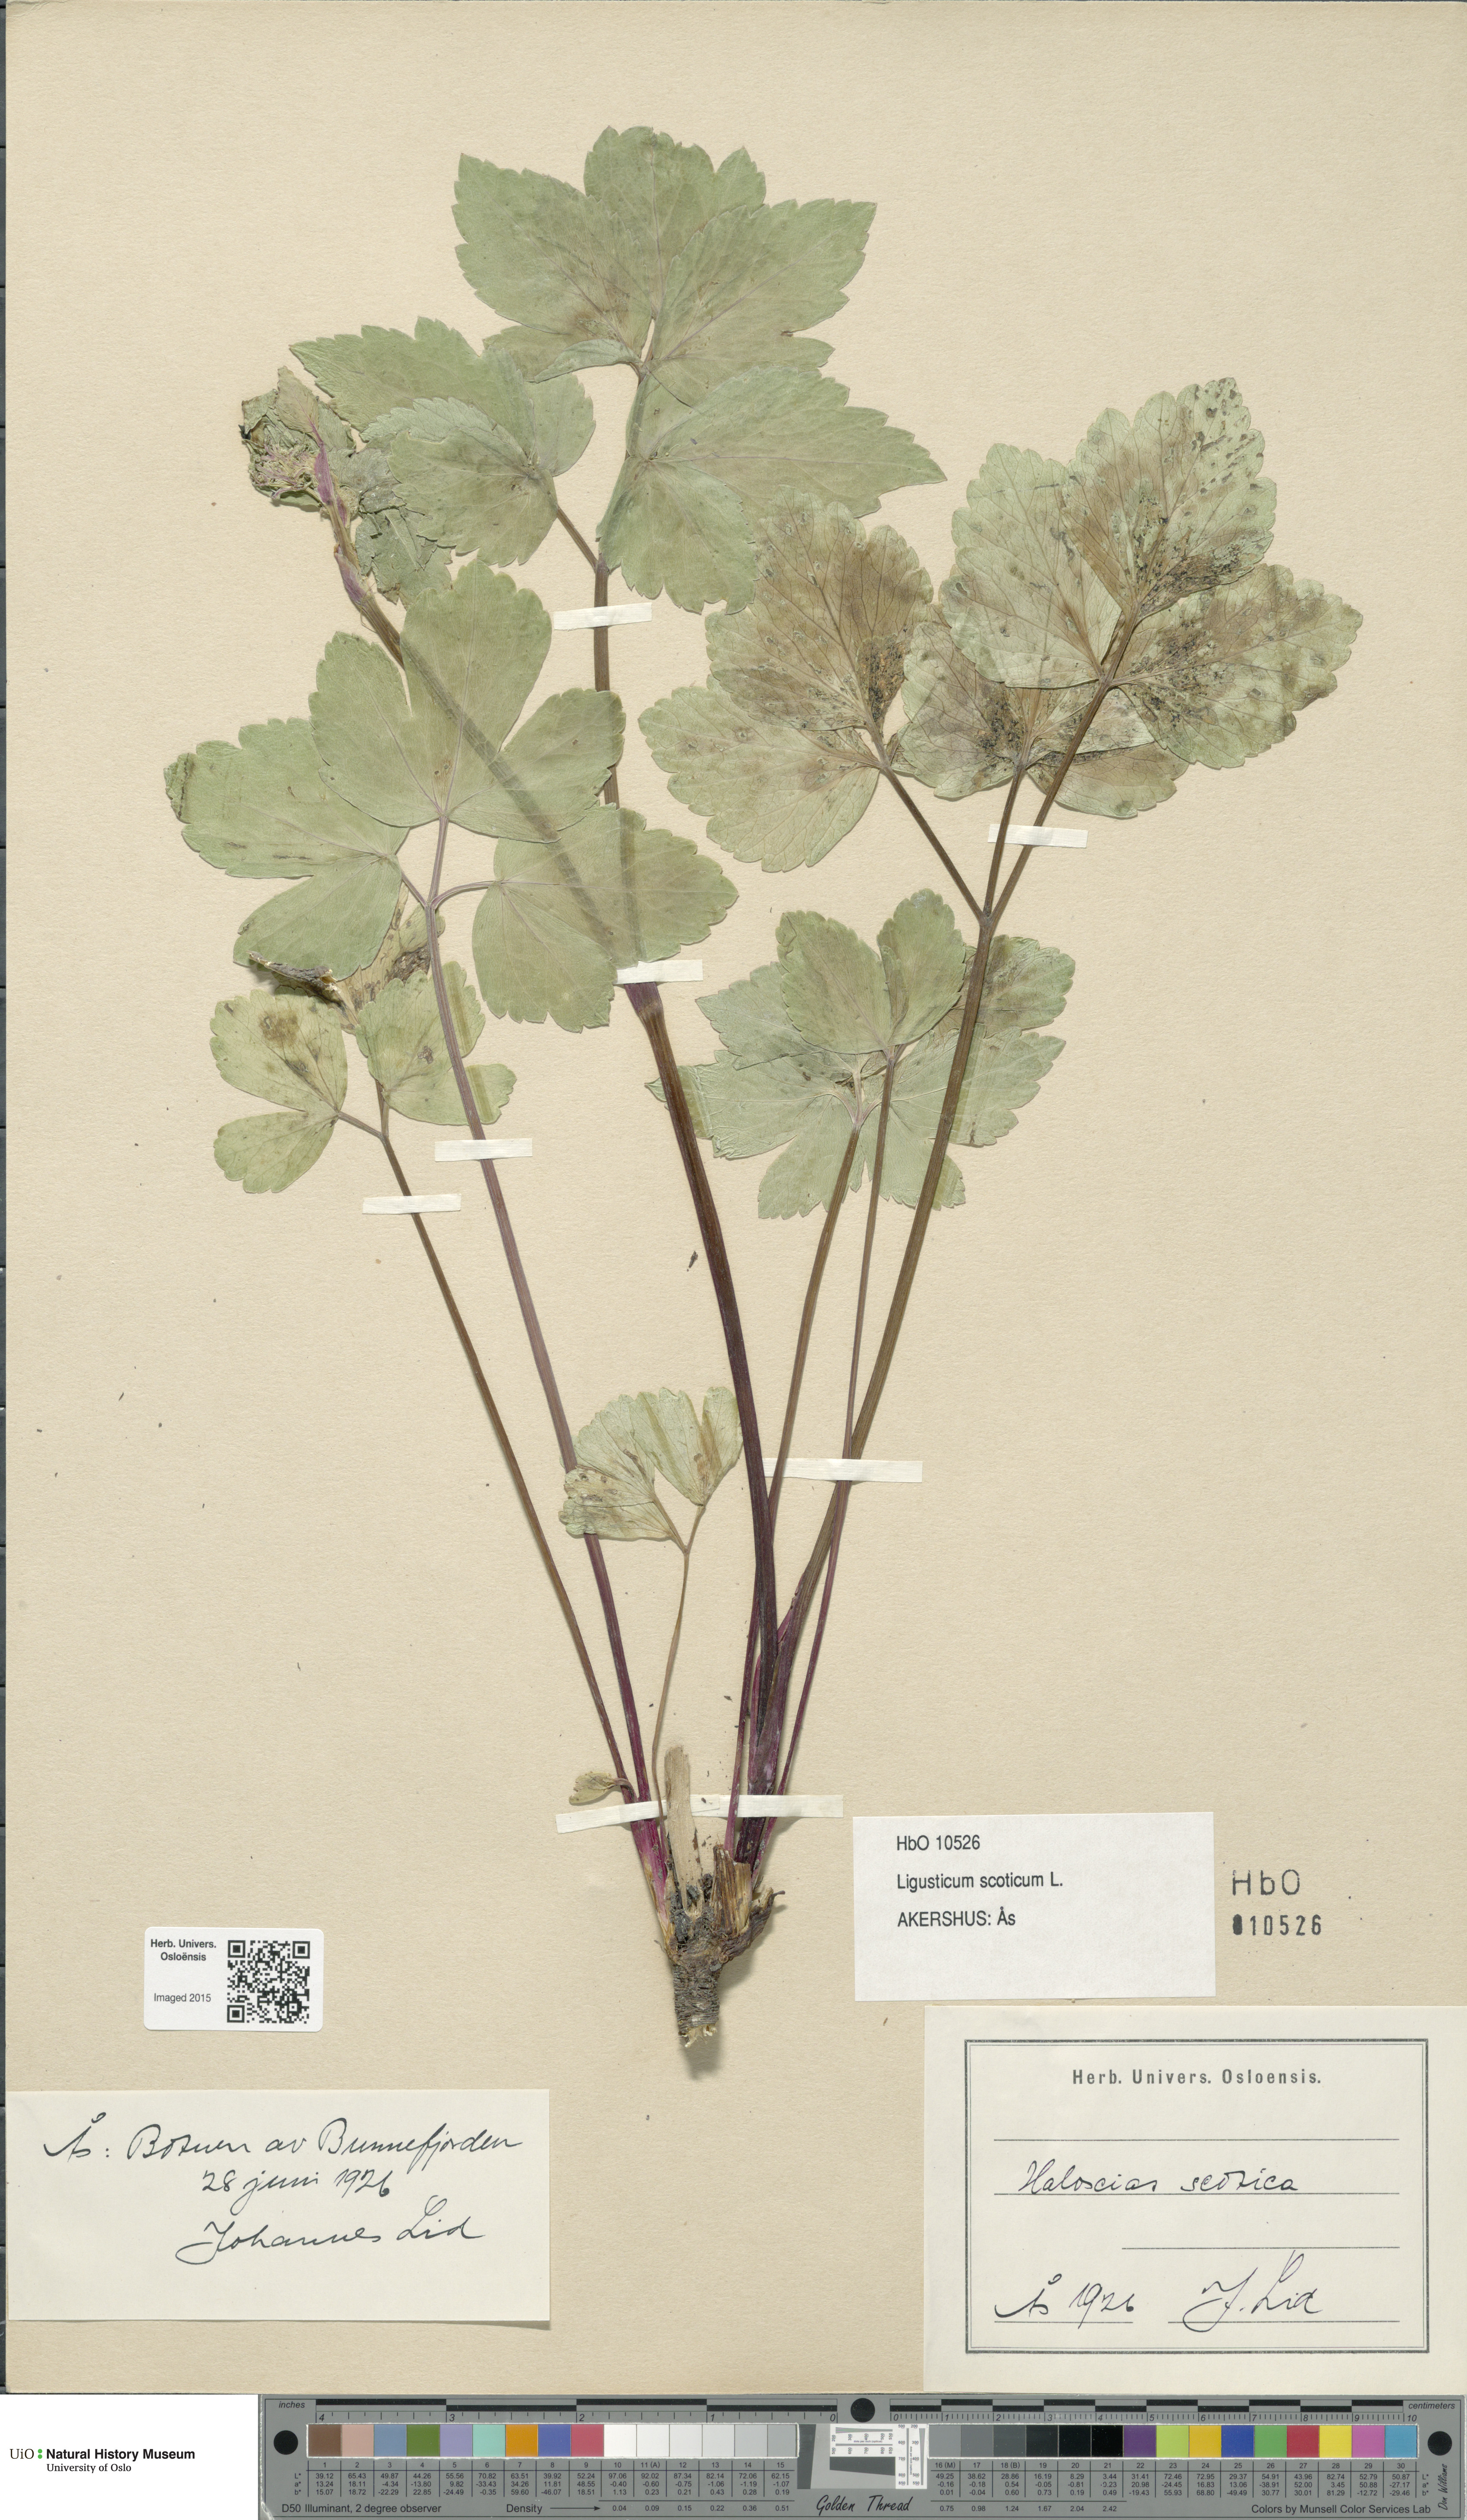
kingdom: Plantae
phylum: Tracheophyta
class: Magnoliopsida
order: Apiales
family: Apiaceae
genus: Ligusticum
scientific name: Ligusticum scothicum
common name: Beach lovage
